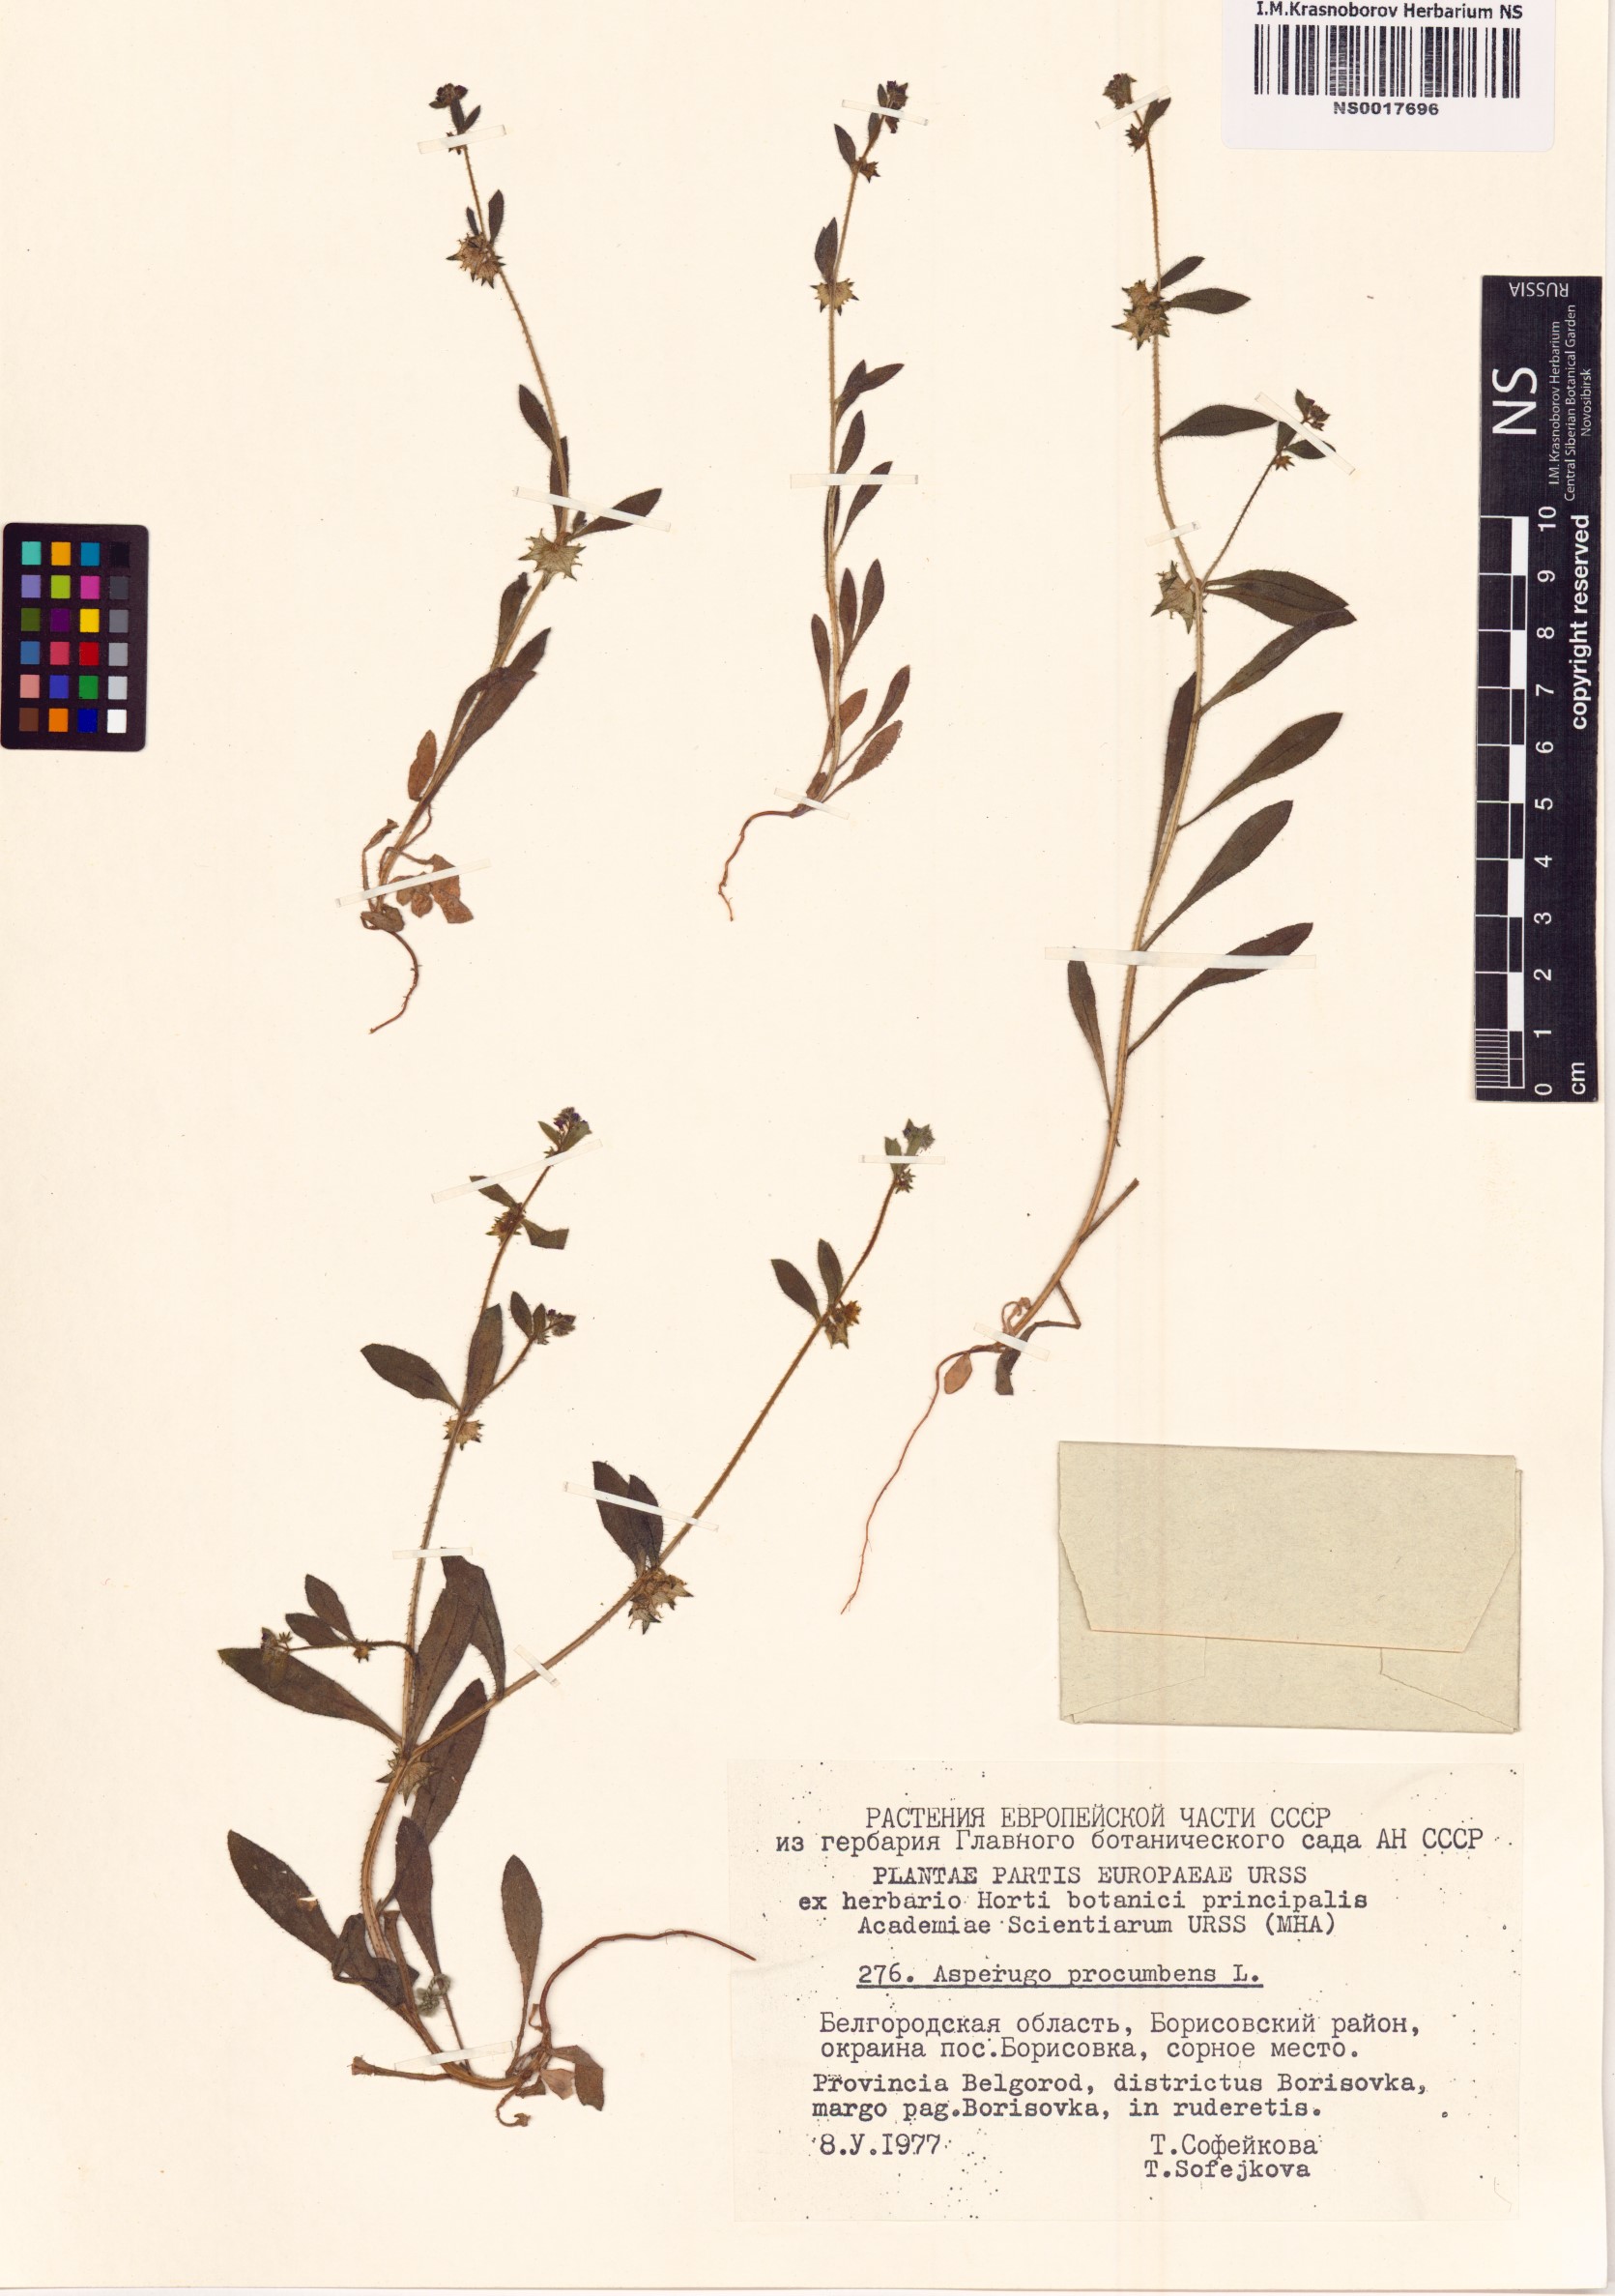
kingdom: Plantae
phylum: Tracheophyta
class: Magnoliopsida
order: Boraginales
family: Boraginaceae
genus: Asperugo
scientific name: Asperugo procumbens
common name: Madwort
